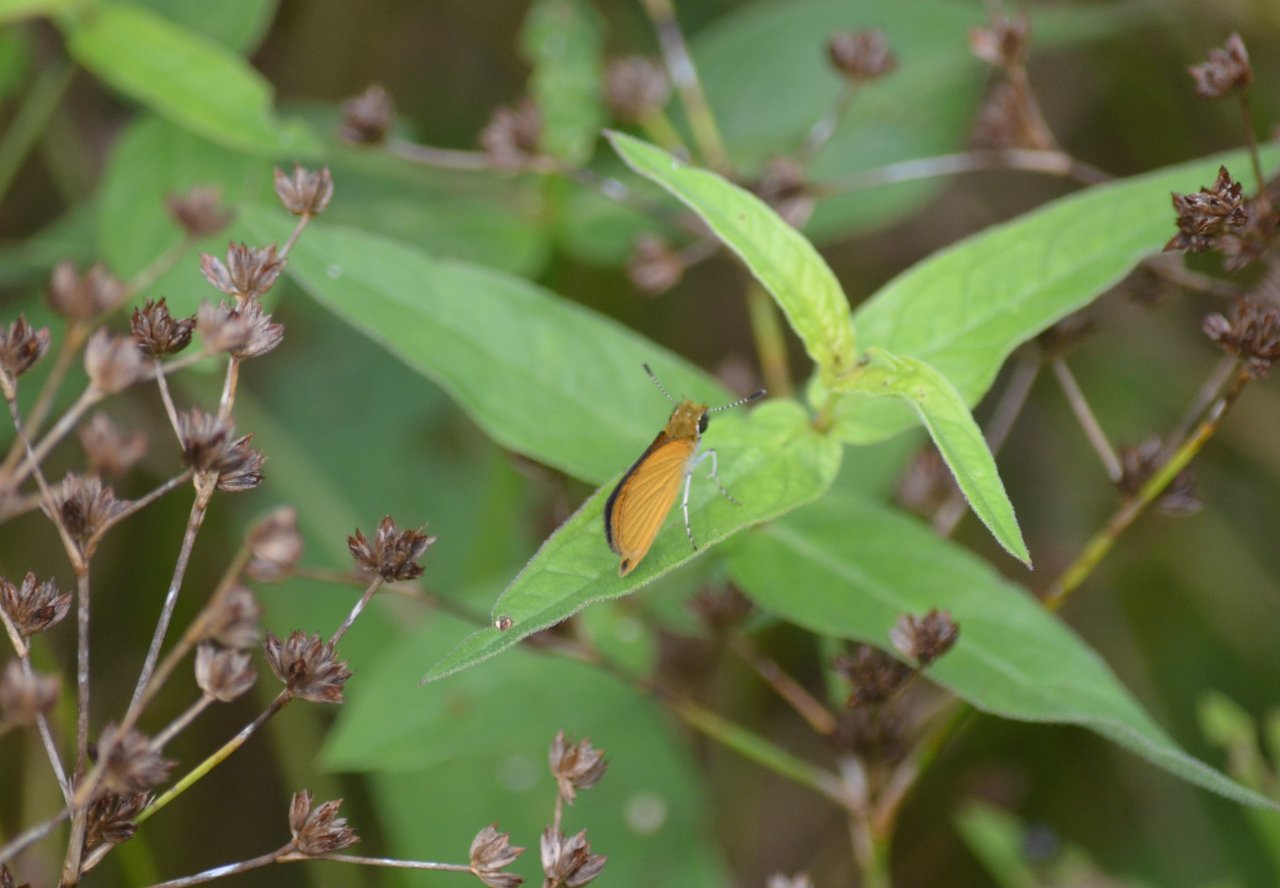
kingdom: Animalia
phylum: Arthropoda
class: Insecta
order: Lepidoptera
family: Hesperiidae
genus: Ancyloxypha
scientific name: Ancyloxypha numitor
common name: Least Skipper
